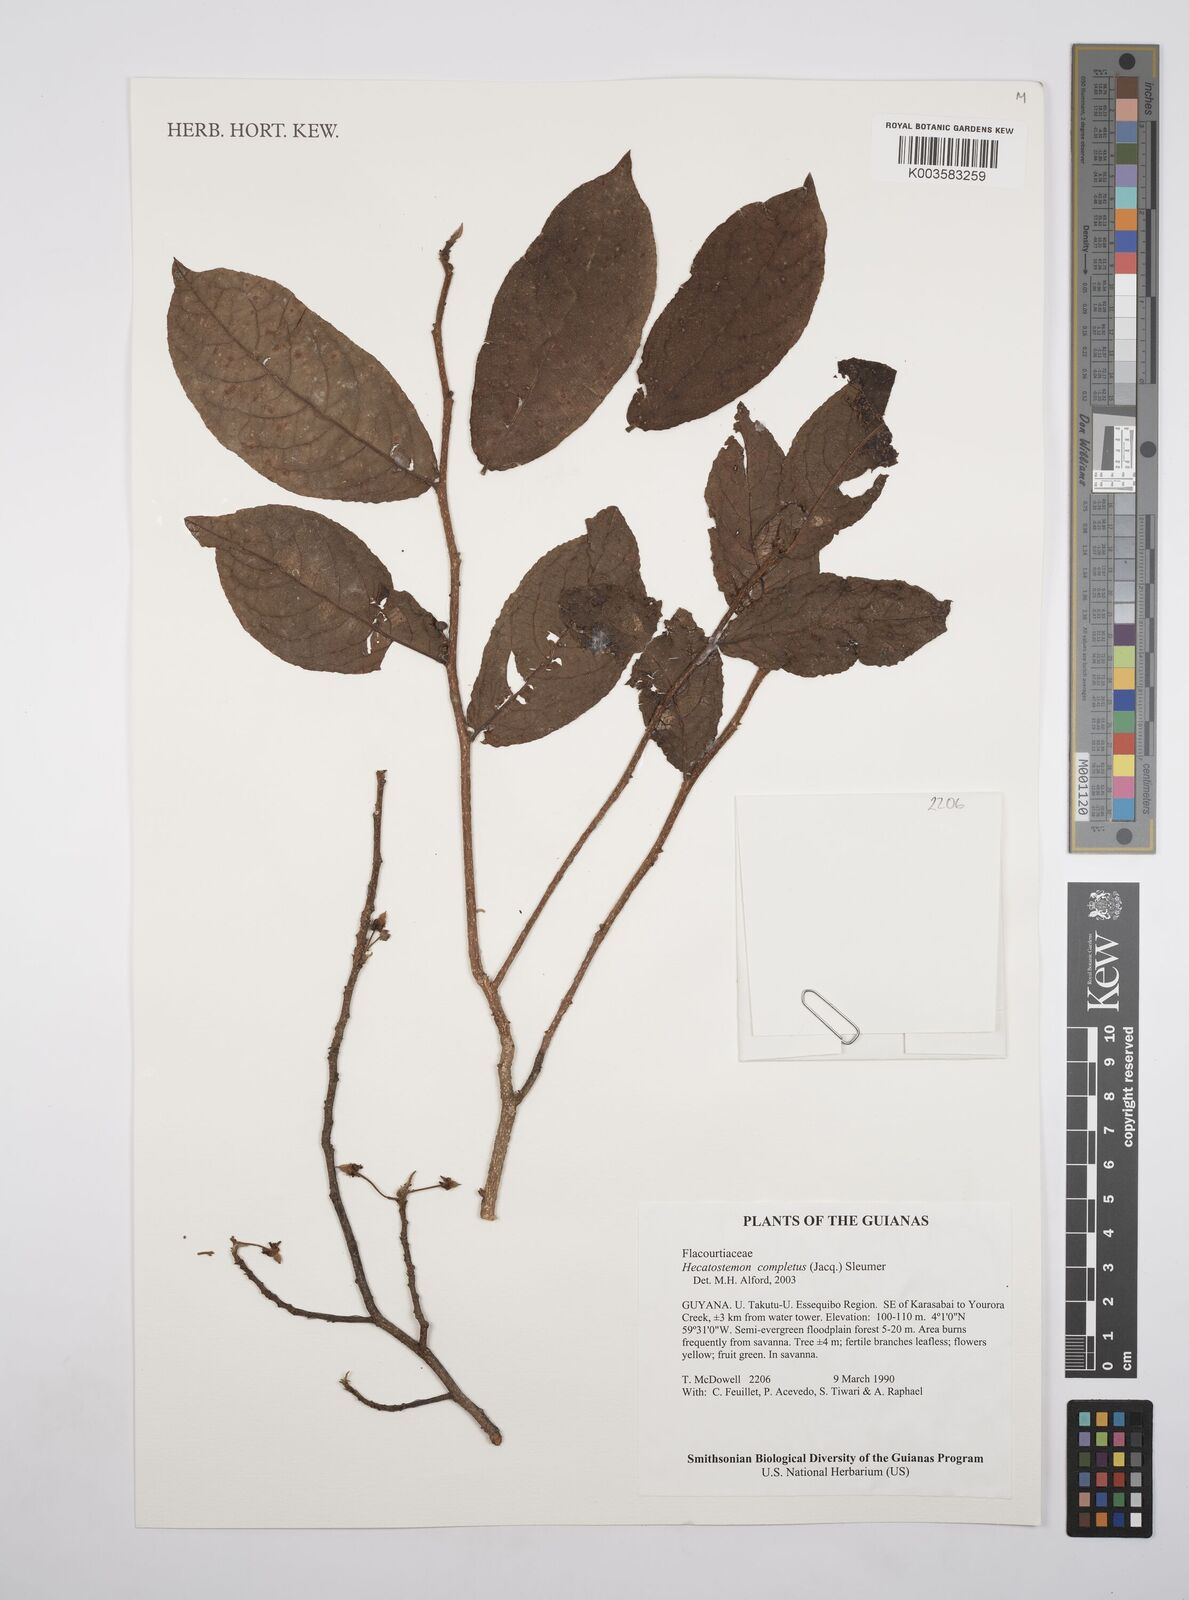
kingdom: Plantae
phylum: Tracheophyta
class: Magnoliopsida
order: Malpighiales
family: Salicaceae
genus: Casearia
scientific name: Casearia completa
